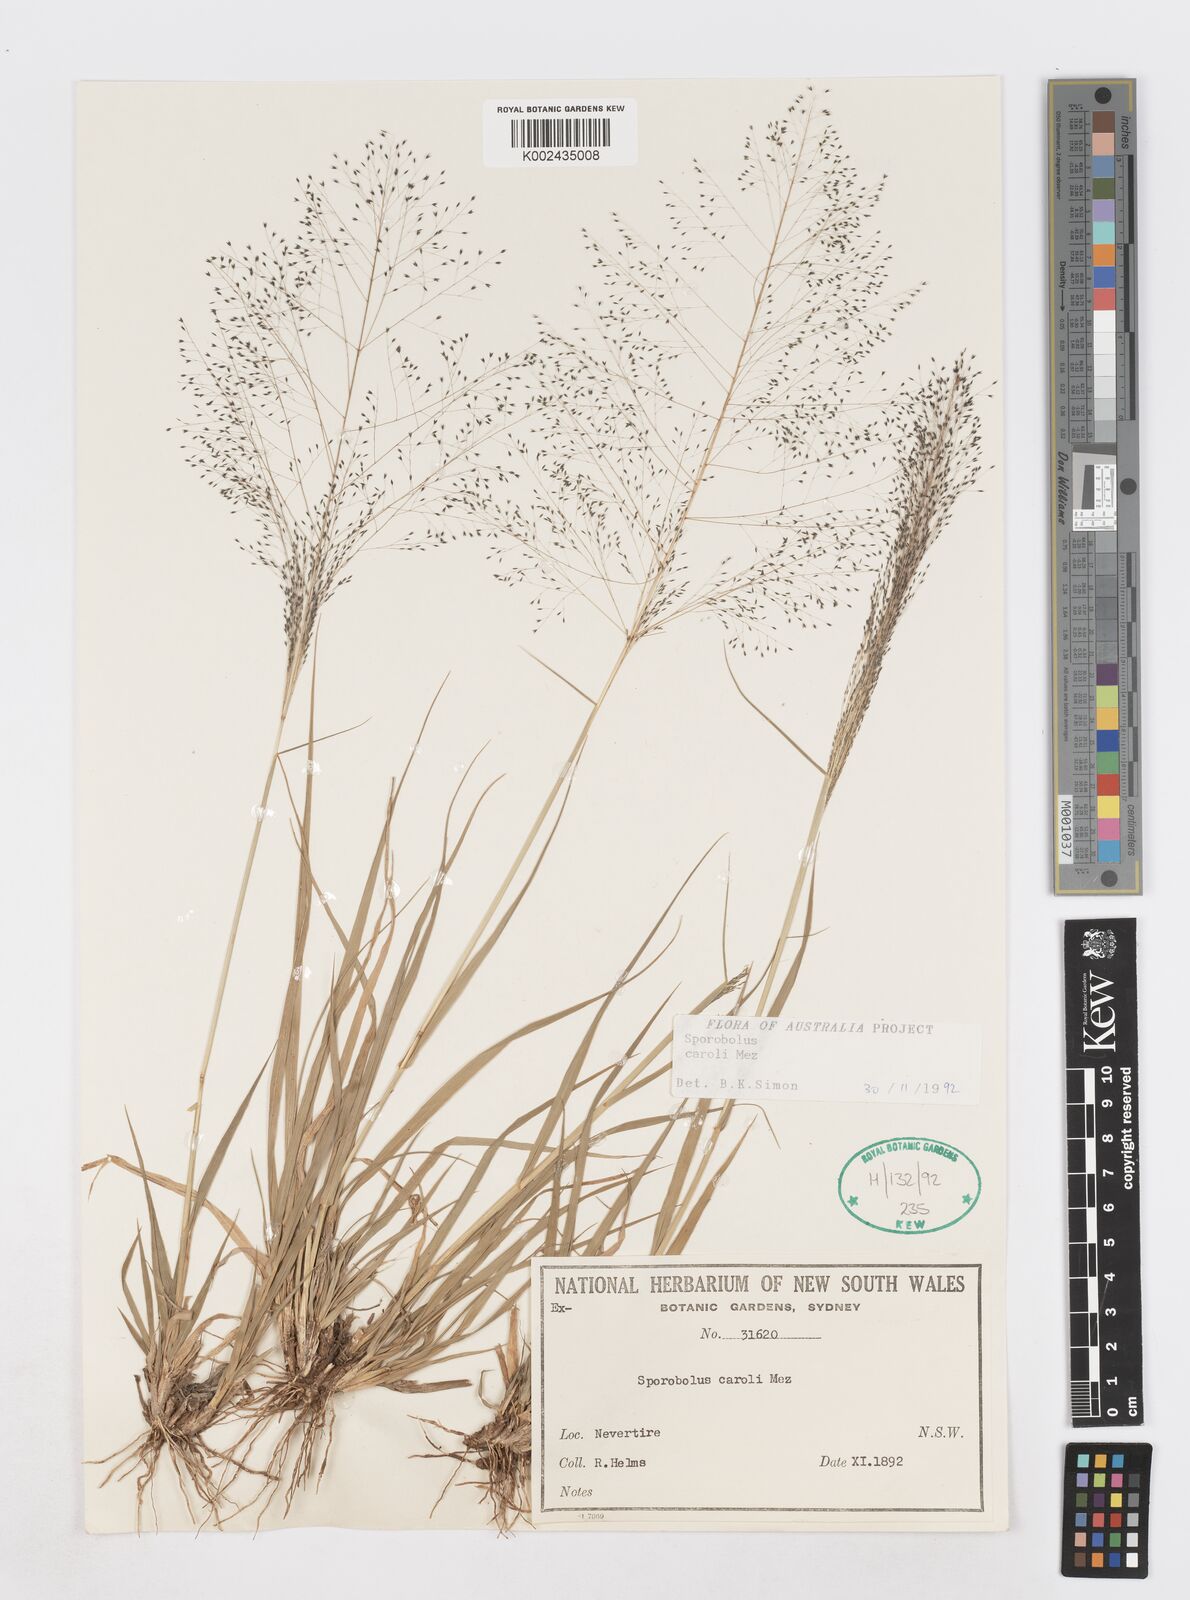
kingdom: Plantae
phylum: Tracheophyta
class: Liliopsida
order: Poales
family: Poaceae
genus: Sporobolus
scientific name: Sporobolus caroli
